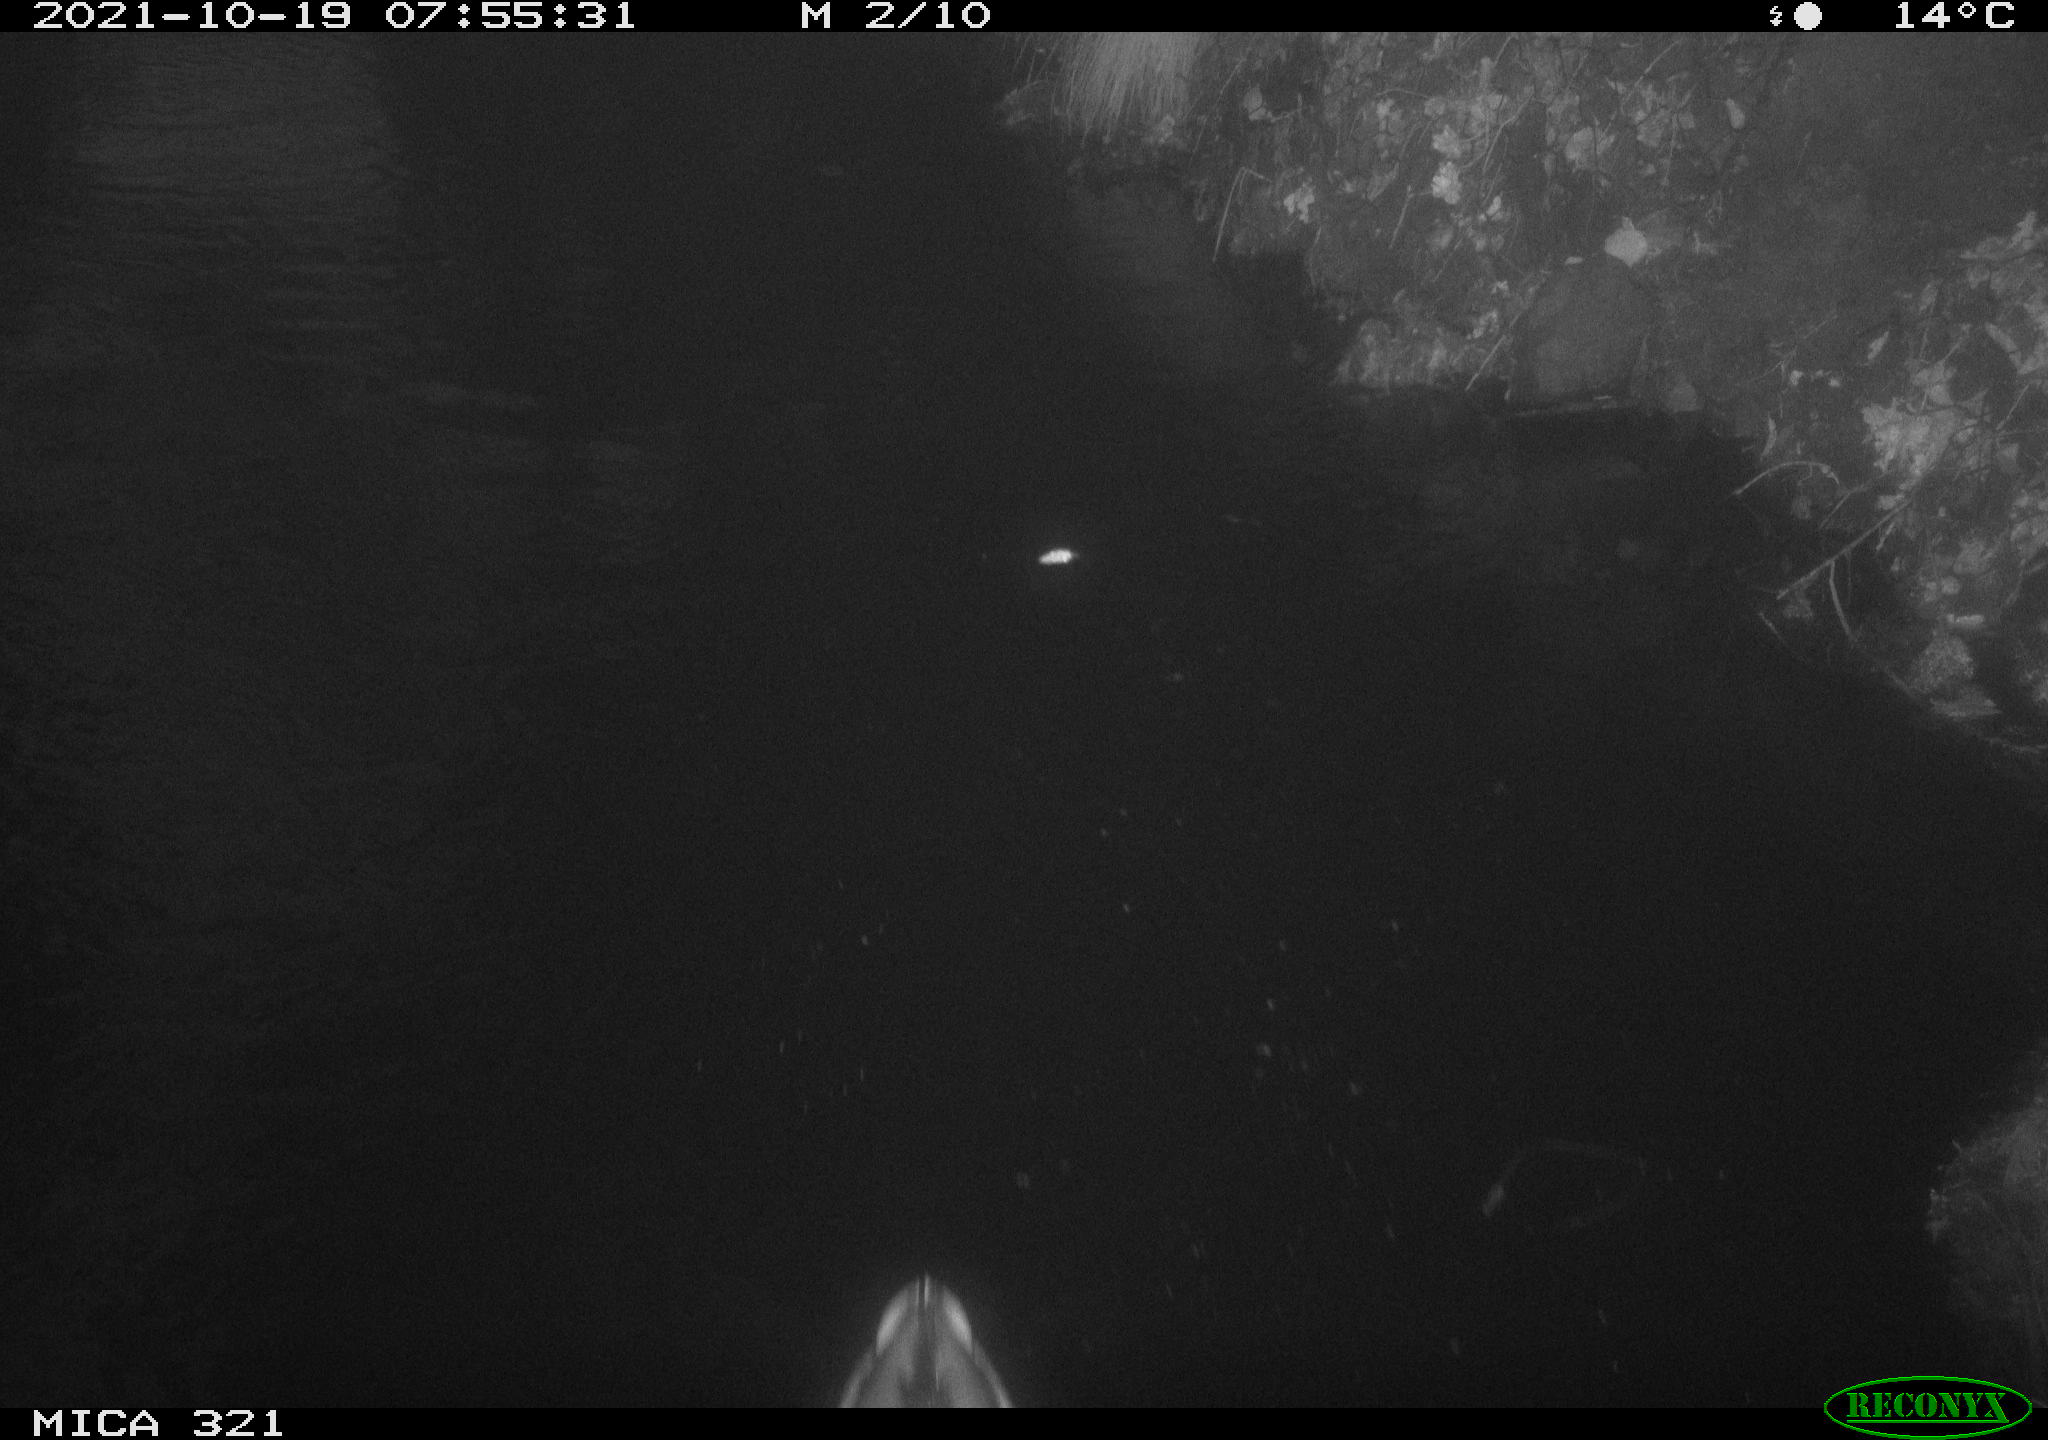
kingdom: Animalia
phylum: Chordata
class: Aves
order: Anseriformes
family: Anatidae
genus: Anas
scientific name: Anas platyrhynchos
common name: Mallard
